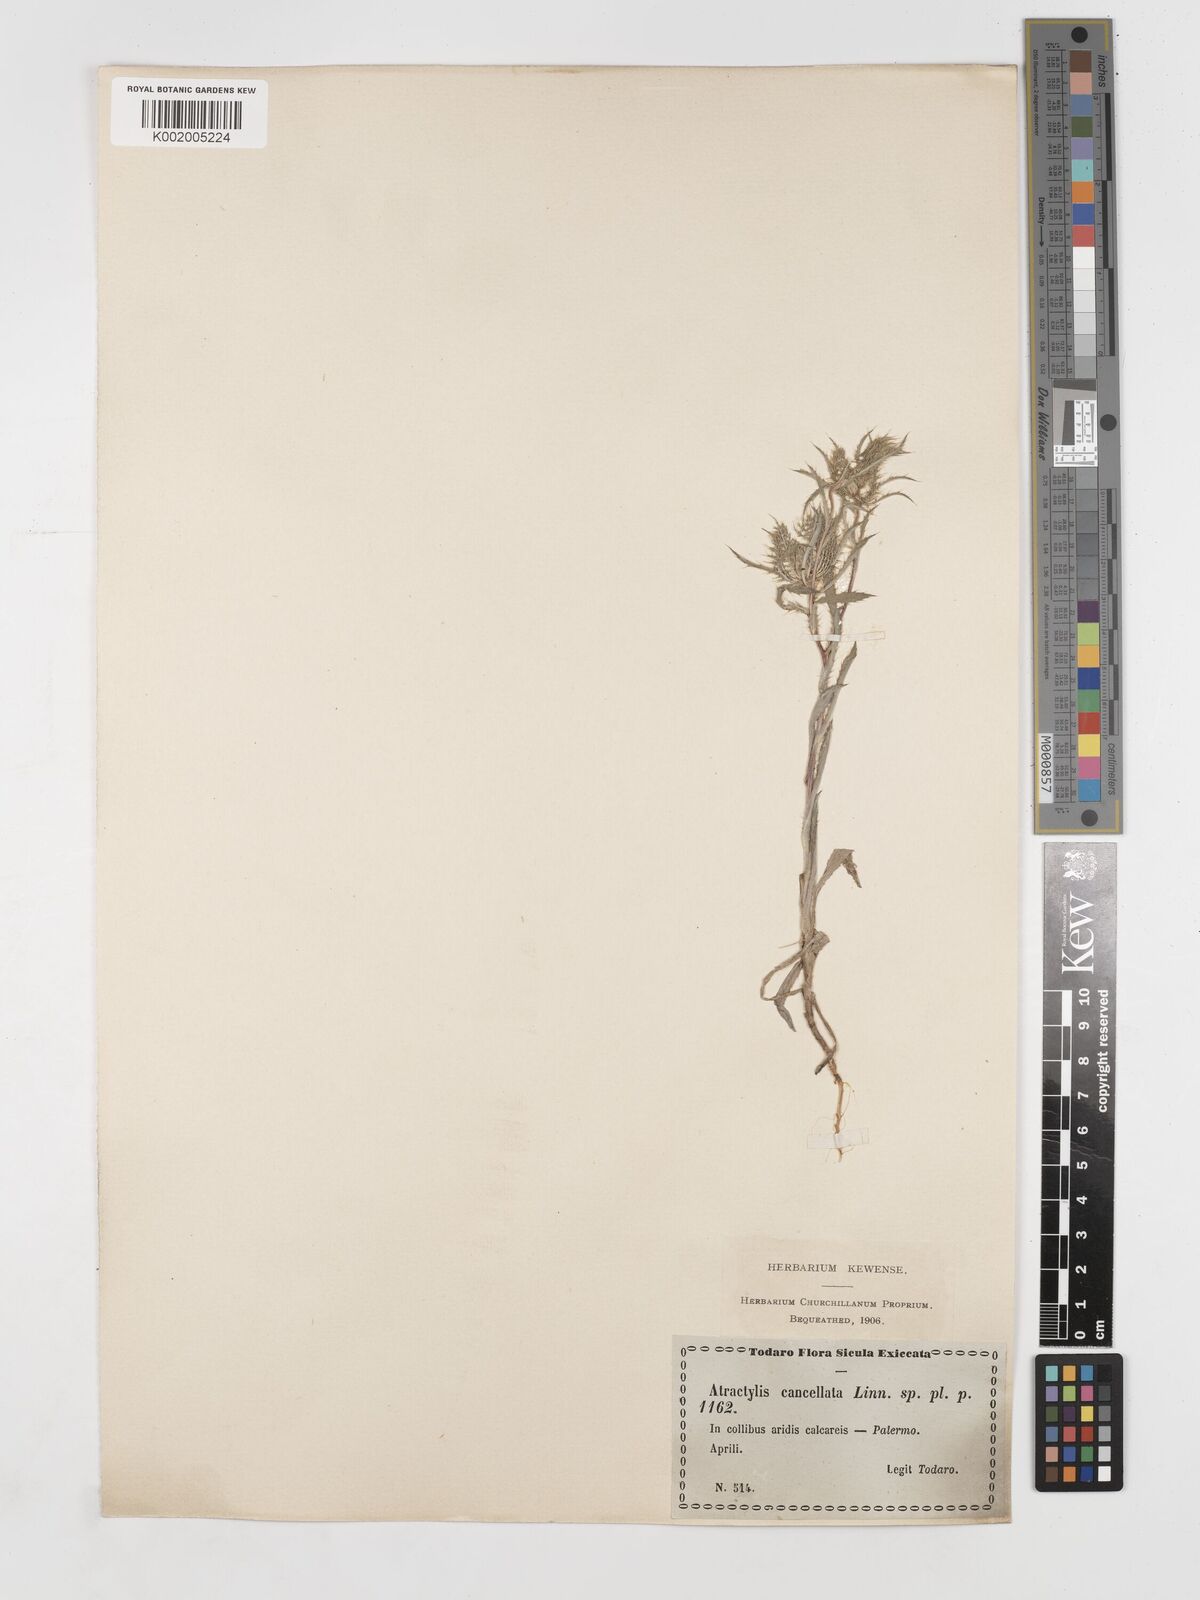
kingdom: Plantae
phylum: Tracheophyta
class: Magnoliopsida
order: Asterales
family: Asteraceae
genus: Atractylis
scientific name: Atractylis cancellata
